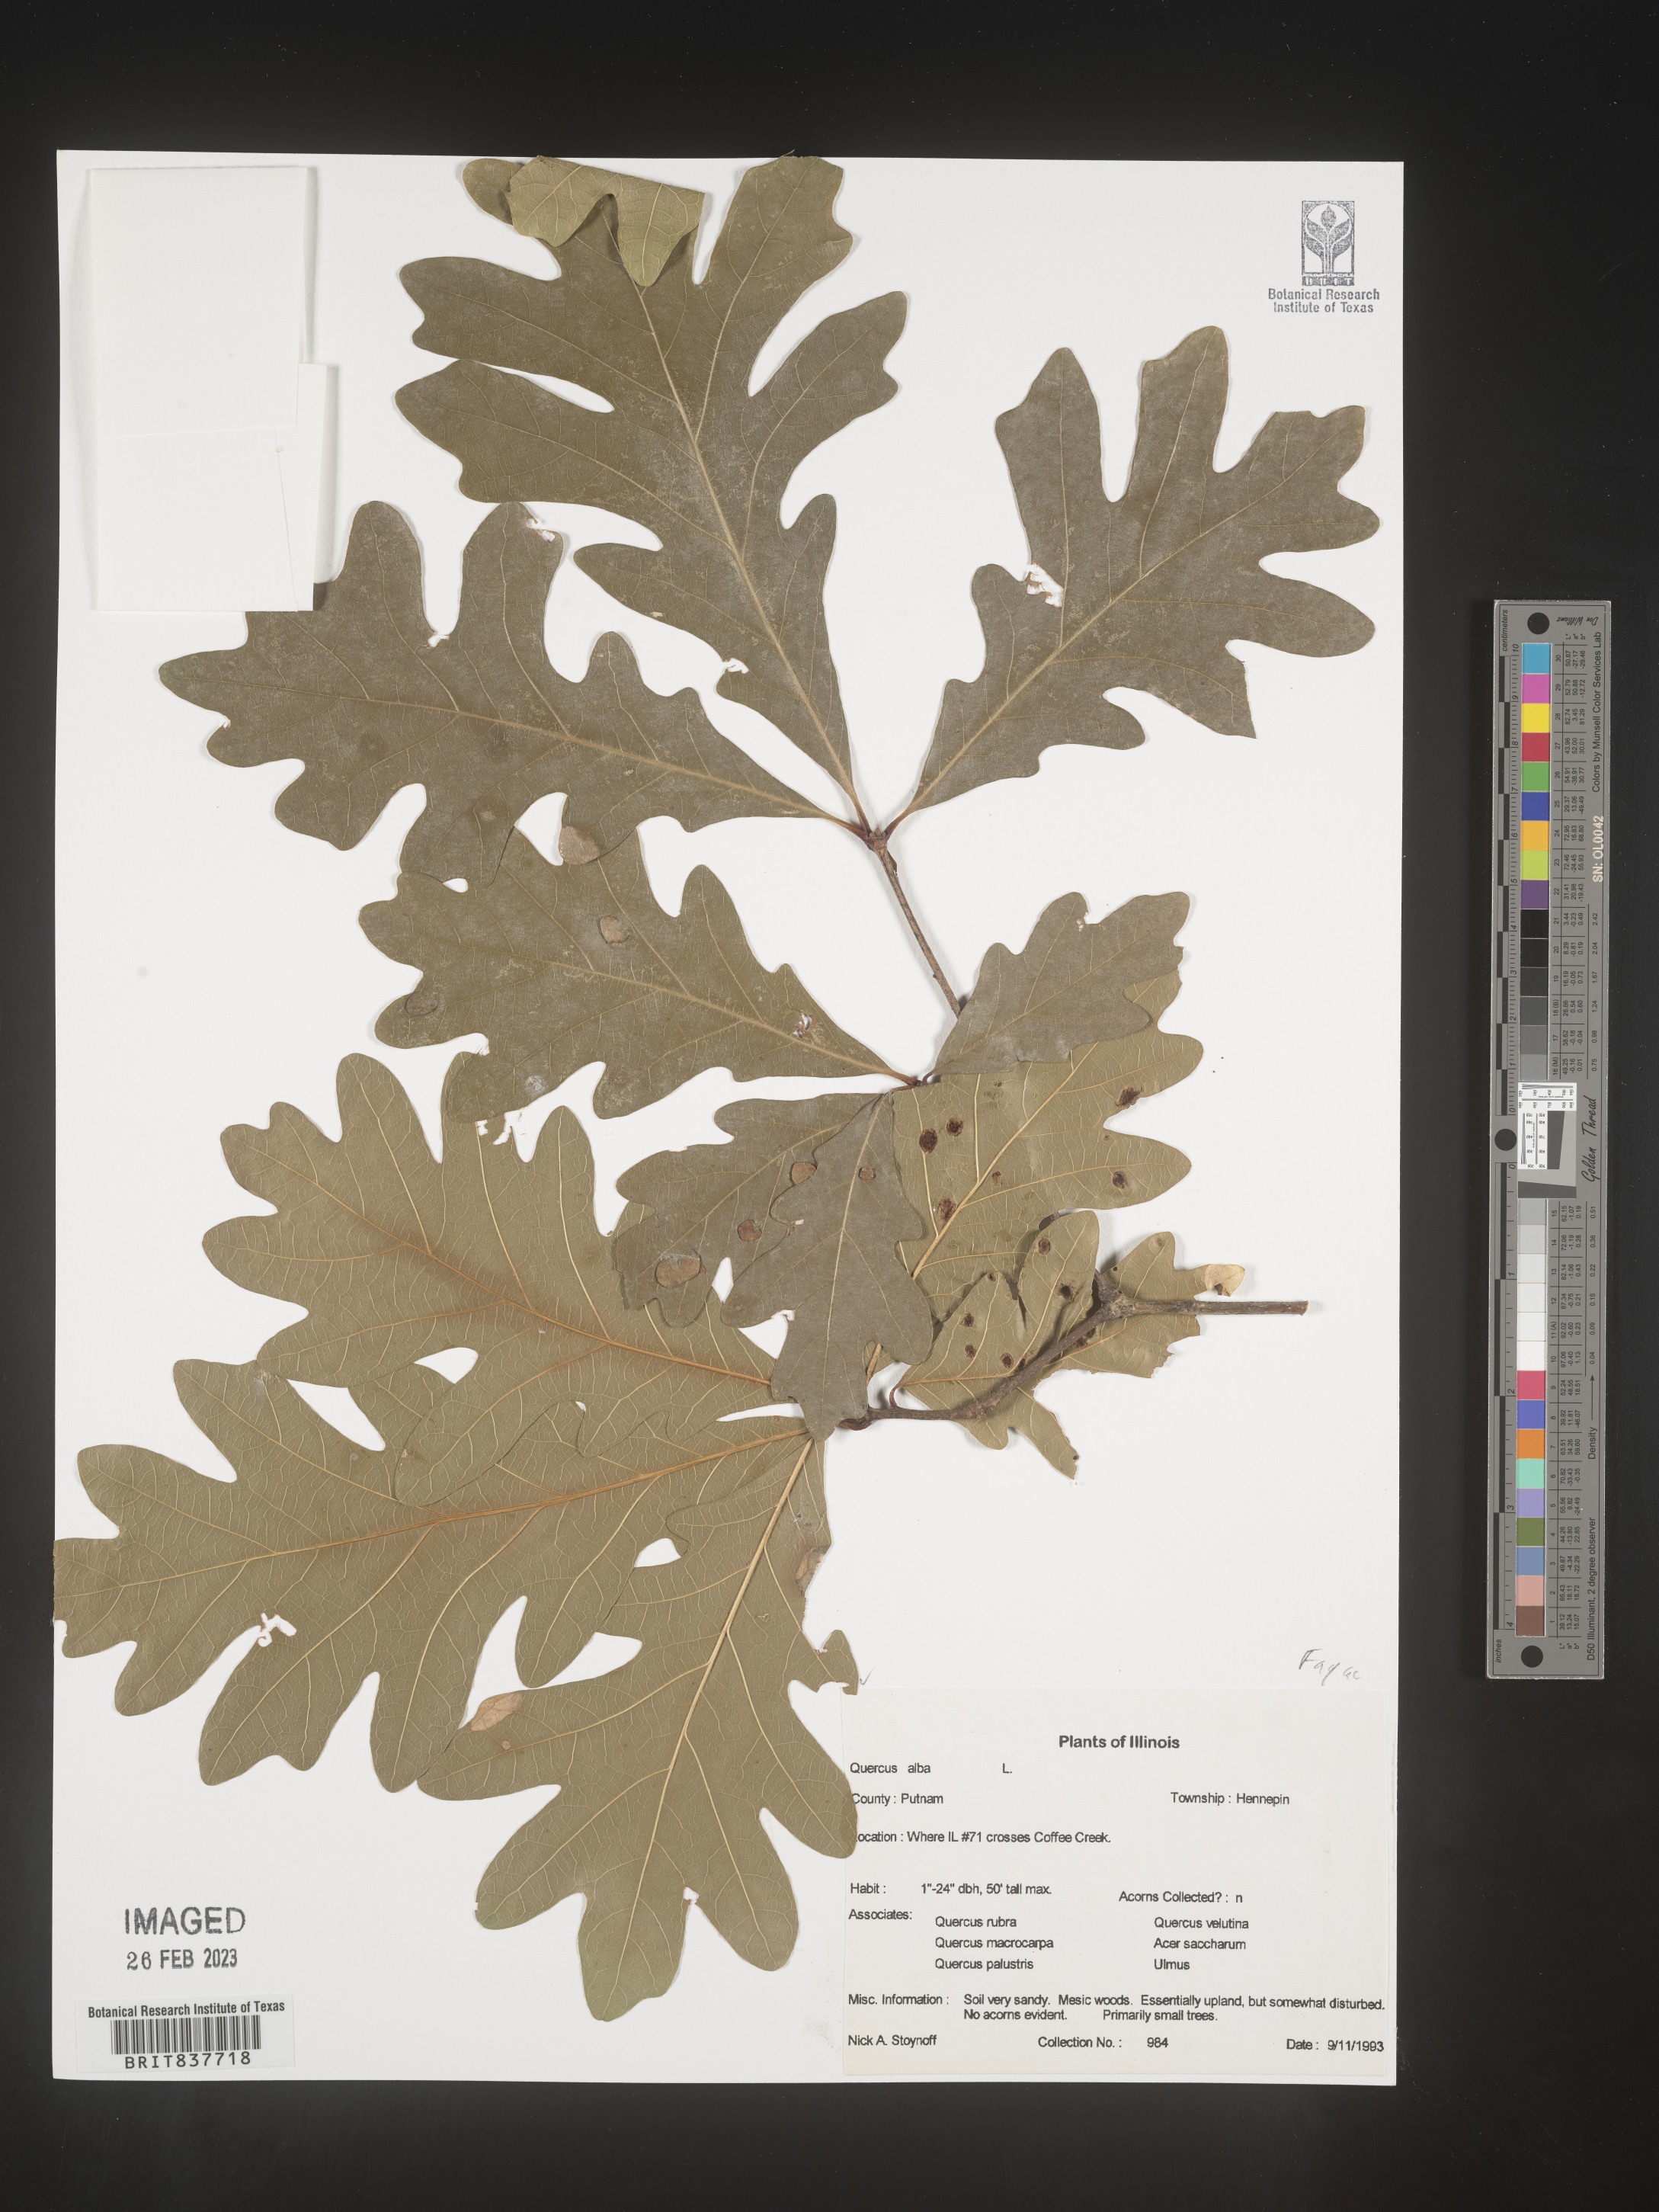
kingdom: Plantae
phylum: Tracheophyta
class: Magnoliopsida
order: Fagales
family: Fagaceae
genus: Quercus
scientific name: Quercus alba
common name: White oak
